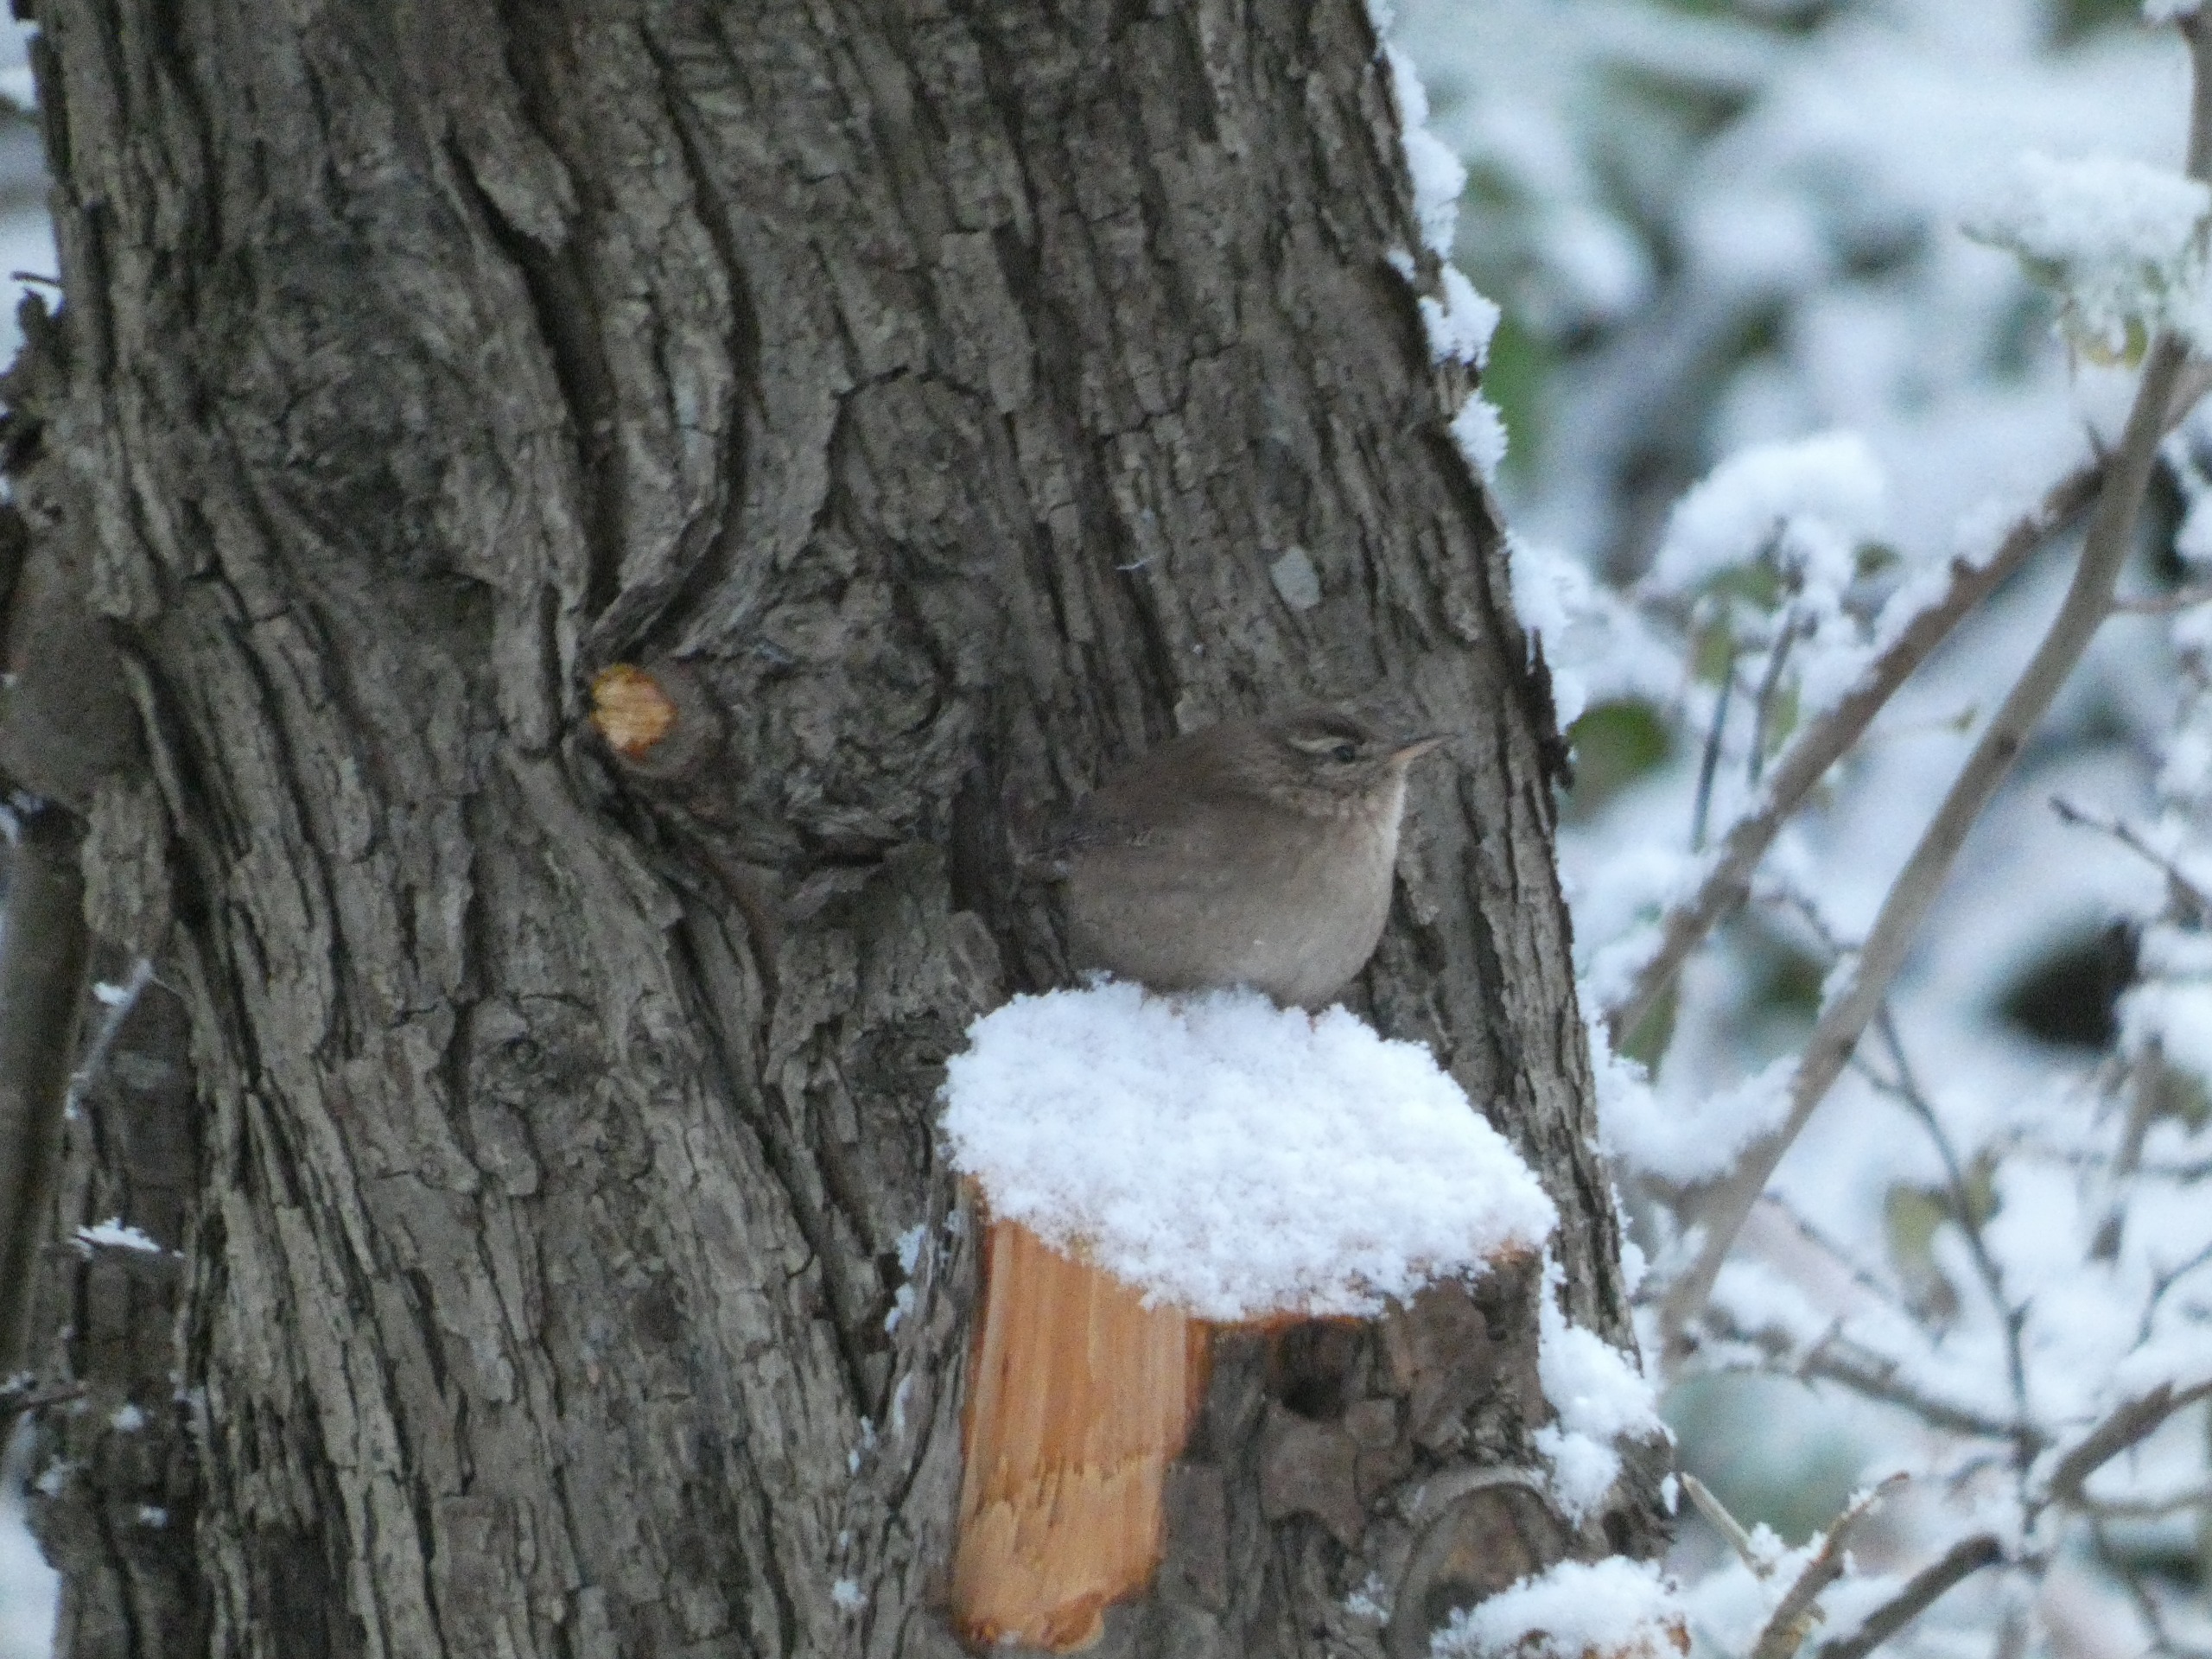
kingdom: Animalia
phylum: Chordata
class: Aves
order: Passeriformes
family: Troglodytidae
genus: Troglodytes
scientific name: Troglodytes troglodytes
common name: Gærdesmutte
